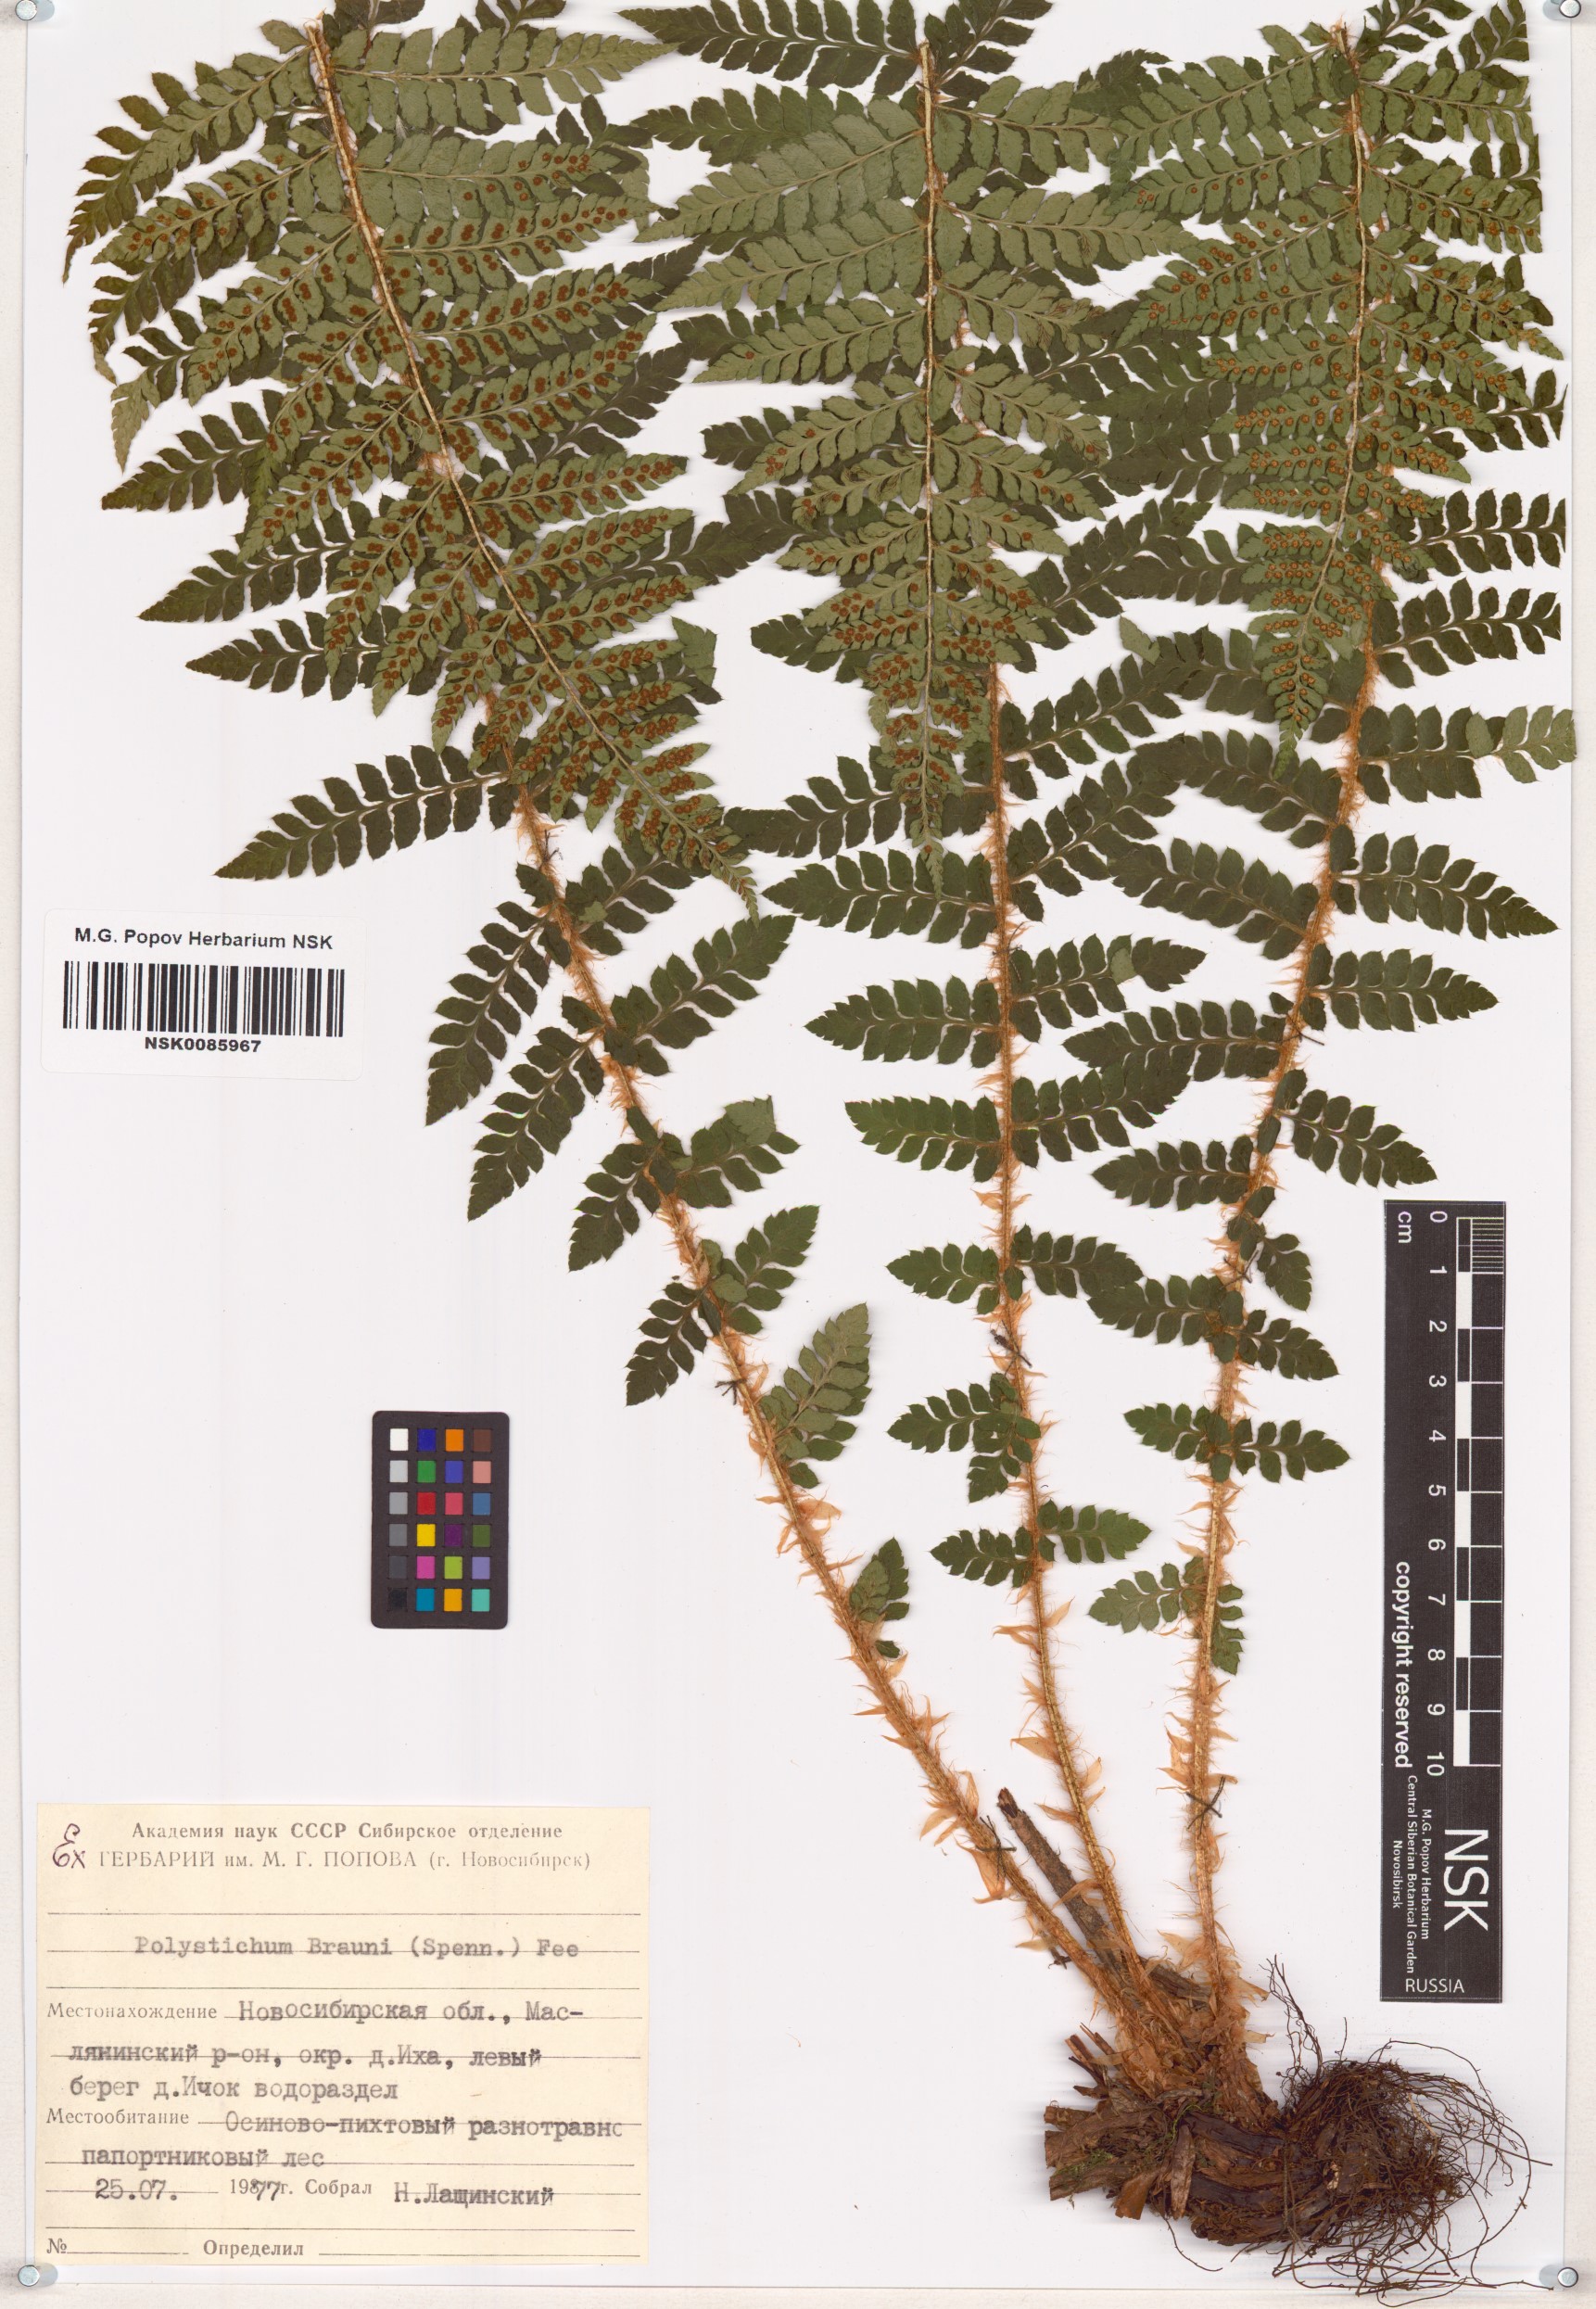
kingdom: Plantae
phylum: Tracheophyta
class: Polypodiopsida
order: Polypodiales
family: Dryopteridaceae
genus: Polystichum
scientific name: Polystichum braunii
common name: Braun's holly fern
